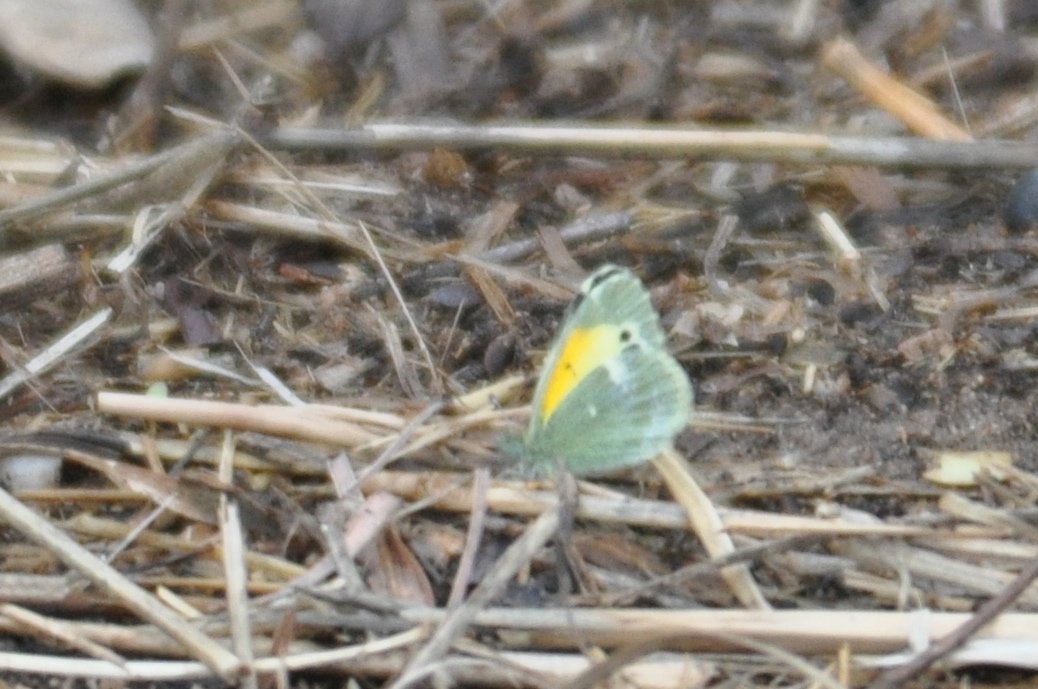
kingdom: Animalia
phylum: Arthropoda
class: Insecta
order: Lepidoptera
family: Pieridae
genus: Nathalis
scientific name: Nathalis iole
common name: Dainty Sulphur
